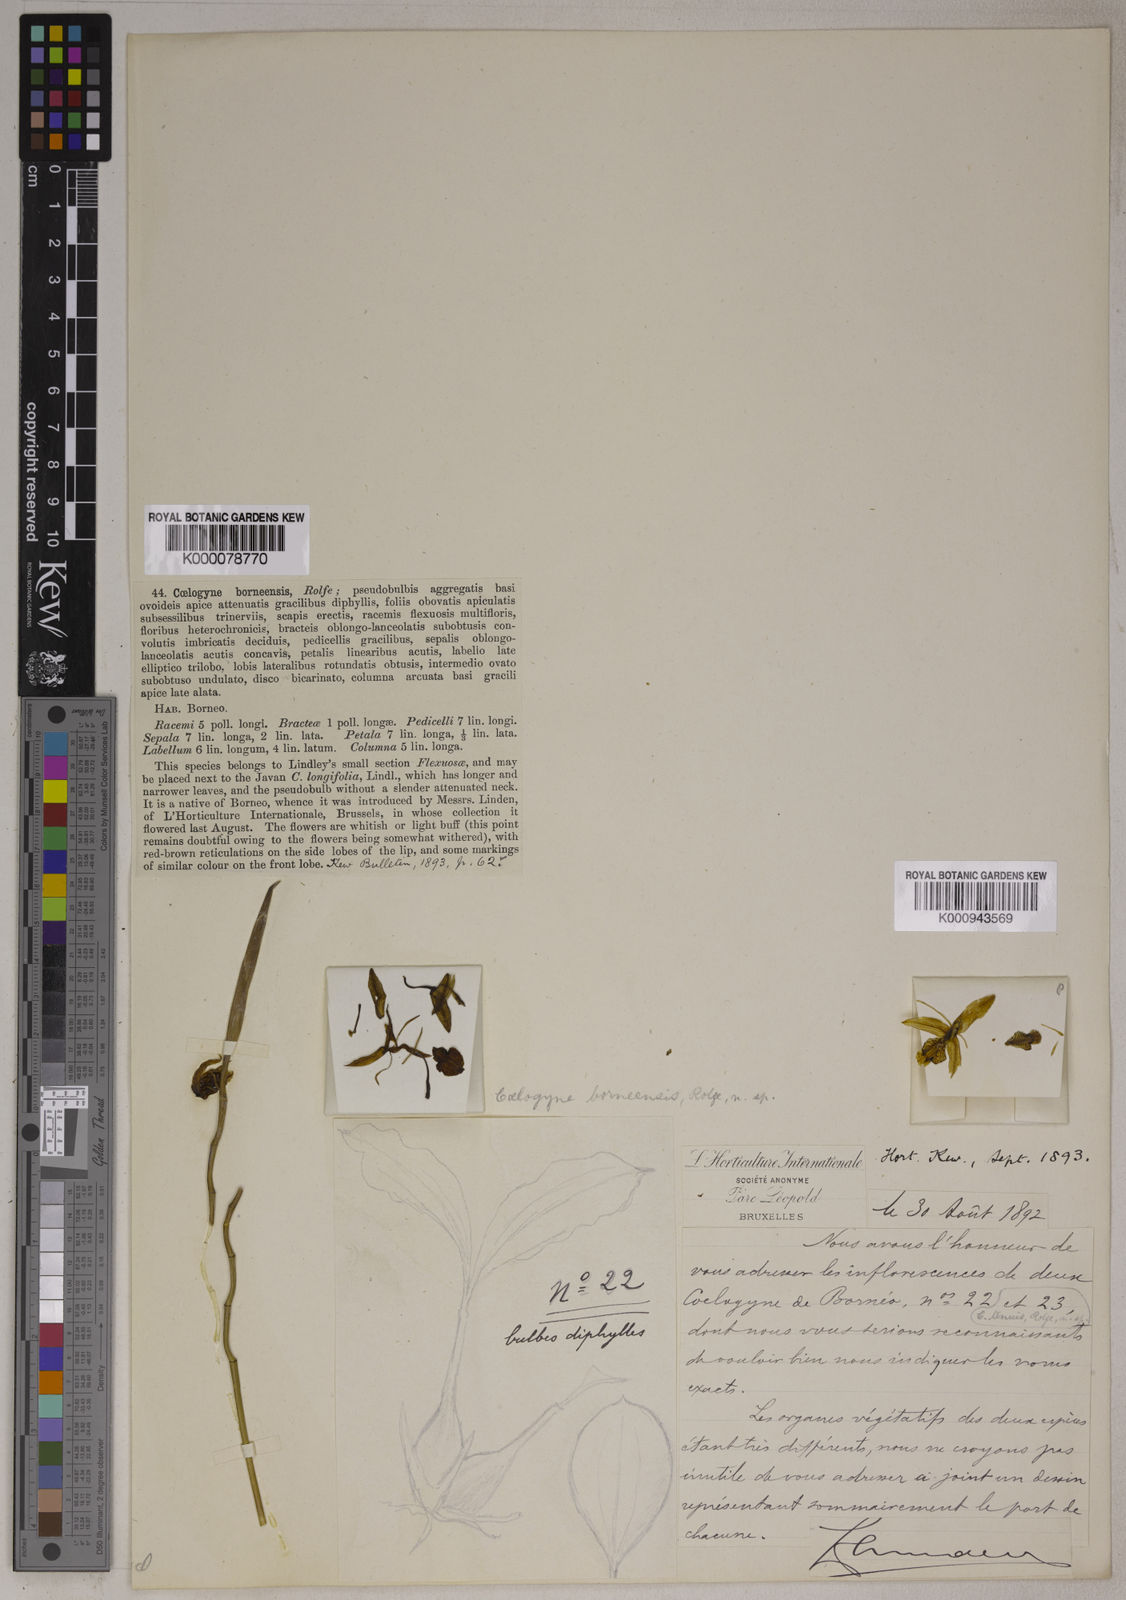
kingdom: Plantae
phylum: Tracheophyta
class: Liliopsida
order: Asparagales
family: Orchidaceae
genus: Coelogyne
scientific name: Coelogyne borneensis
